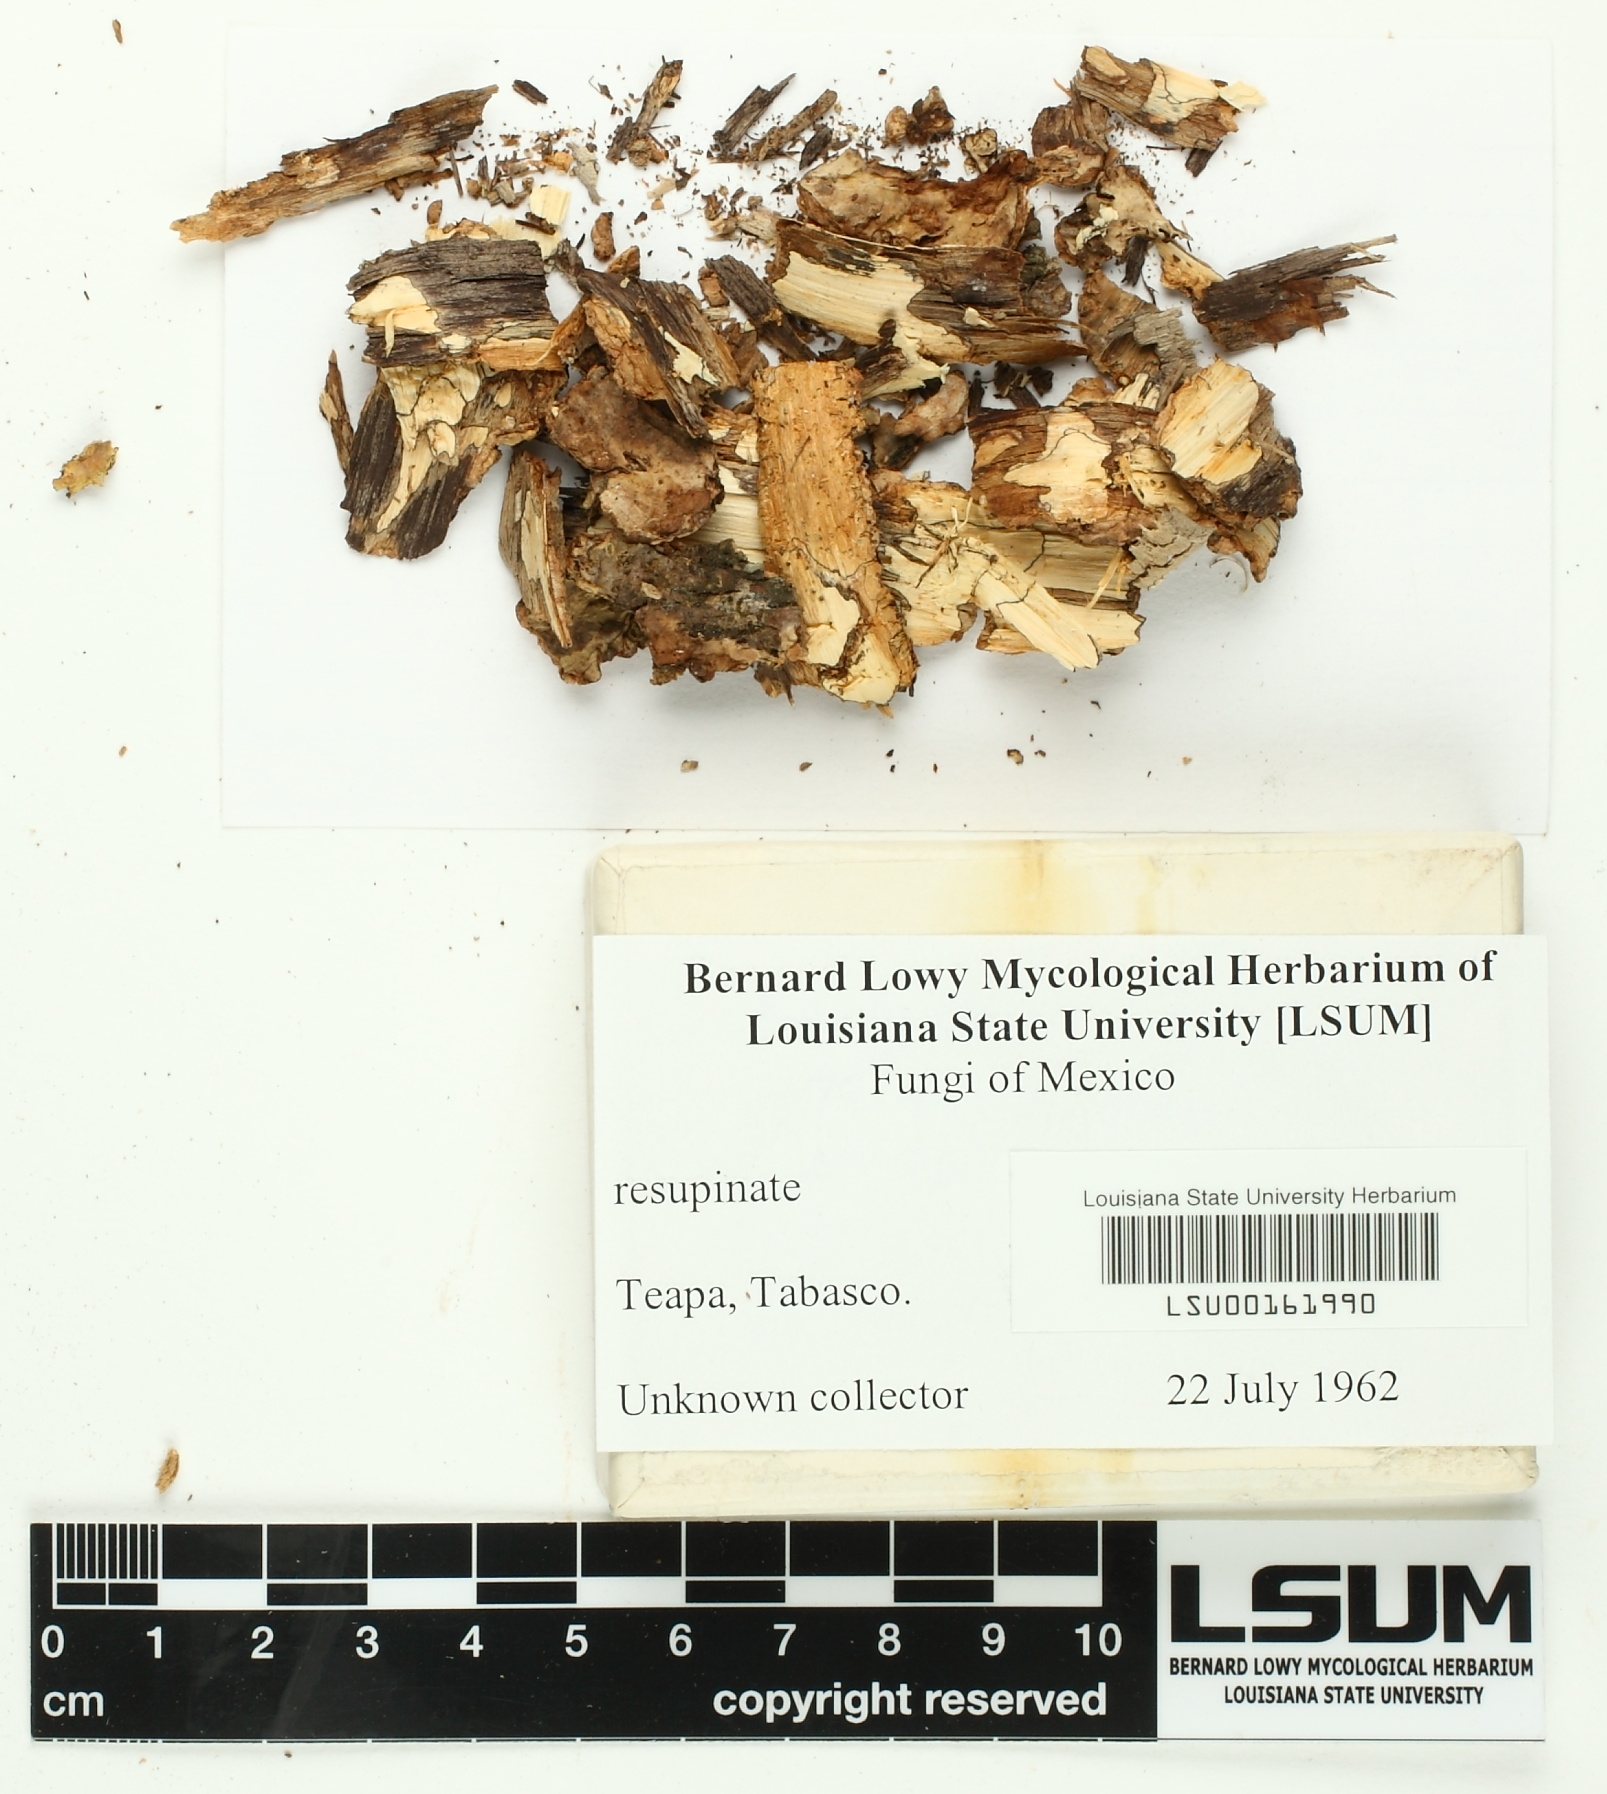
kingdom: Fungi
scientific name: Fungi
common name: Fungi
